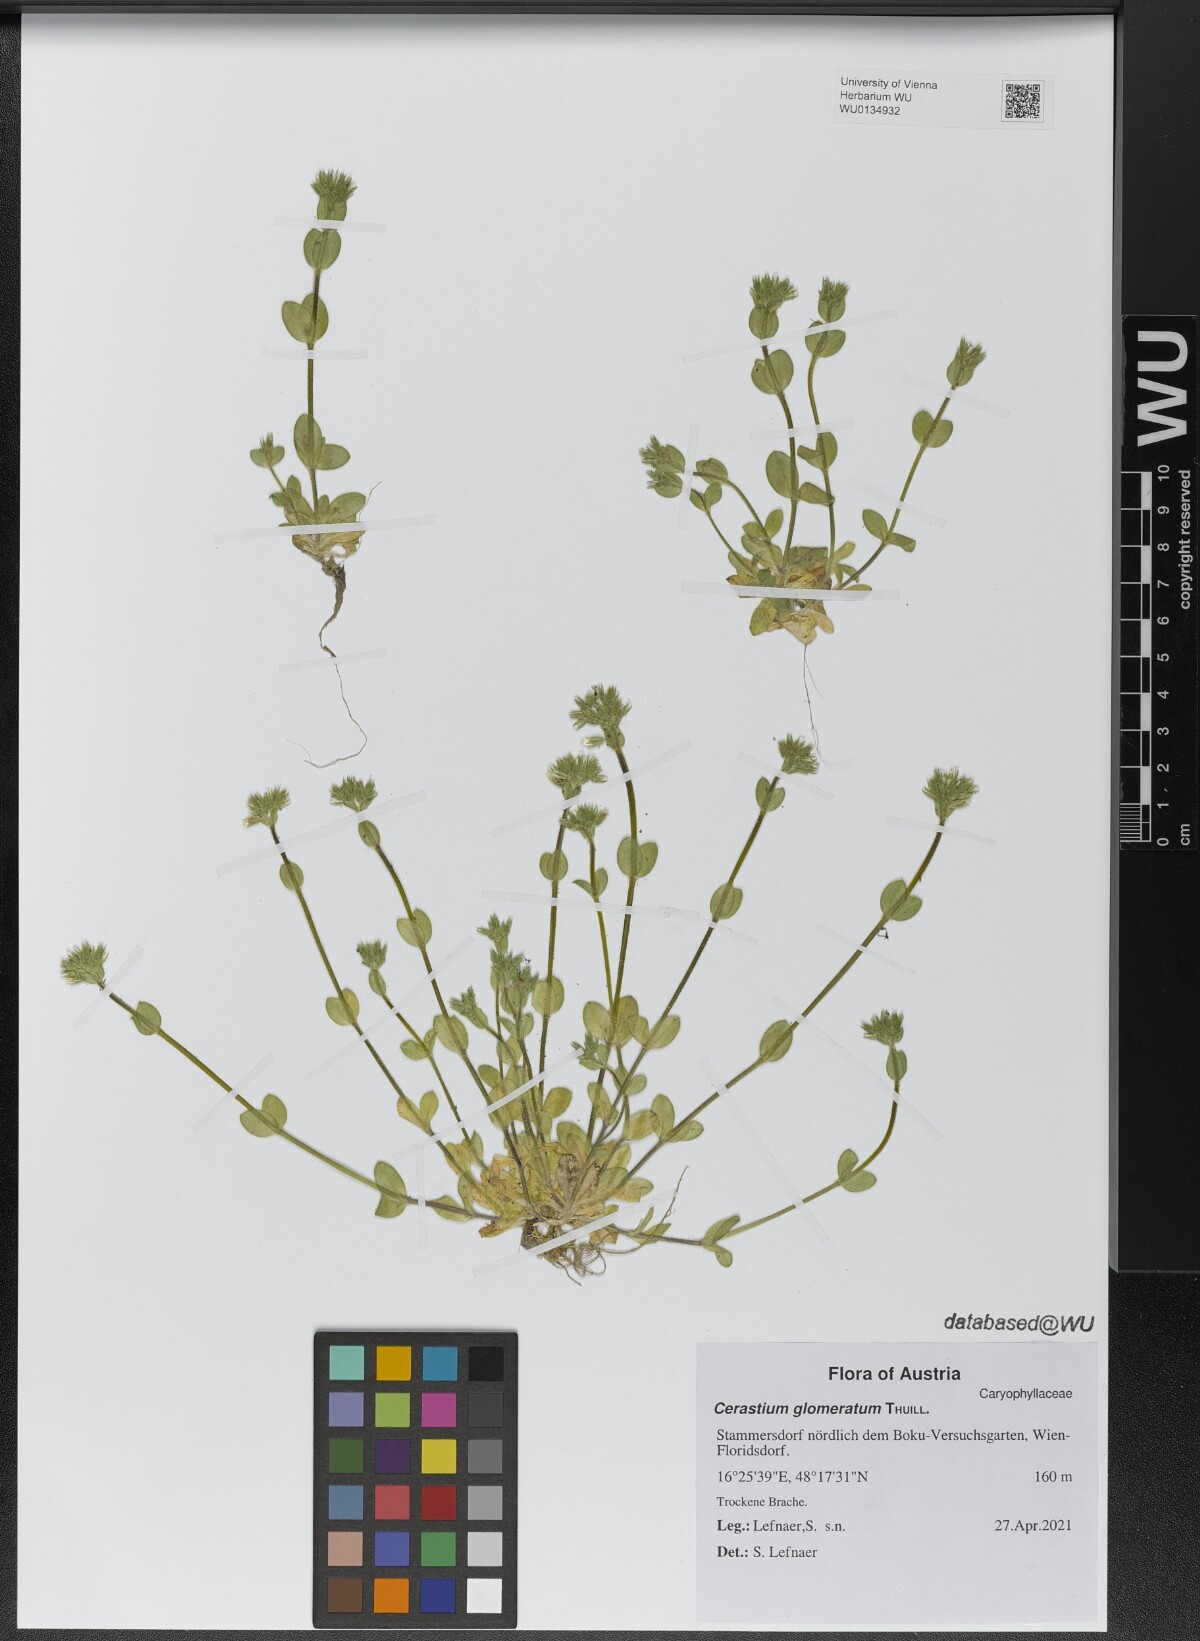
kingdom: Plantae
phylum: Tracheophyta
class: Magnoliopsida
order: Caryophyllales
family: Caryophyllaceae
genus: Cerastium
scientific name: Cerastium glomeratum
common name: Sticky chickweed
